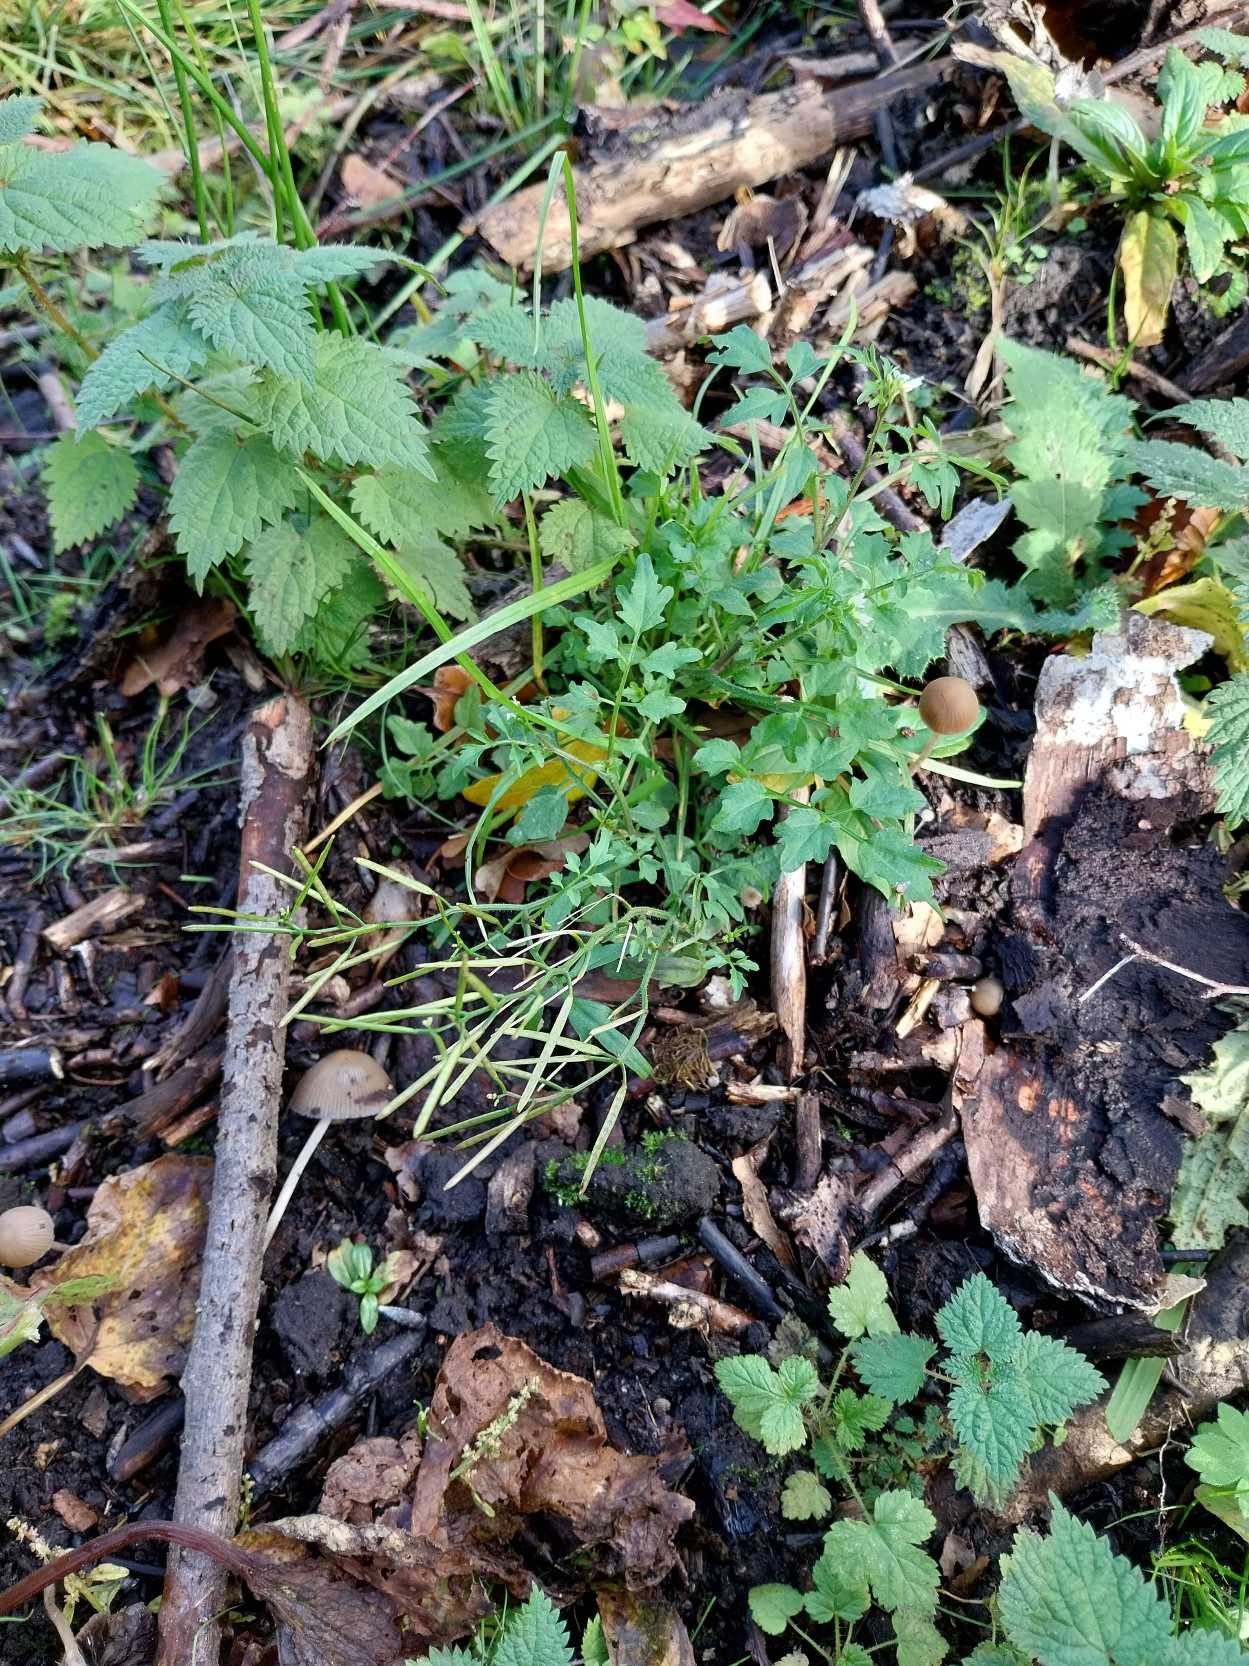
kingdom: Plantae
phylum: Tracheophyta
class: Magnoliopsida
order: Brassicales
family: Brassicaceae
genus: Cardamine
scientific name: Cardamine flexuosa
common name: Skov-springklap
